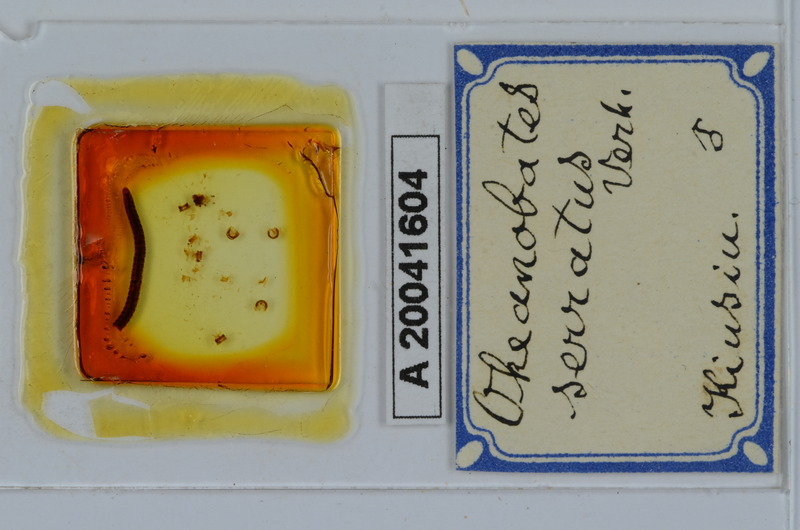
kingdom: Animalia
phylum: Arthropoda
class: Diplopoda
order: Julida
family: Okeanobatidae
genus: Okeanobates
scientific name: Okeanobates serratus
